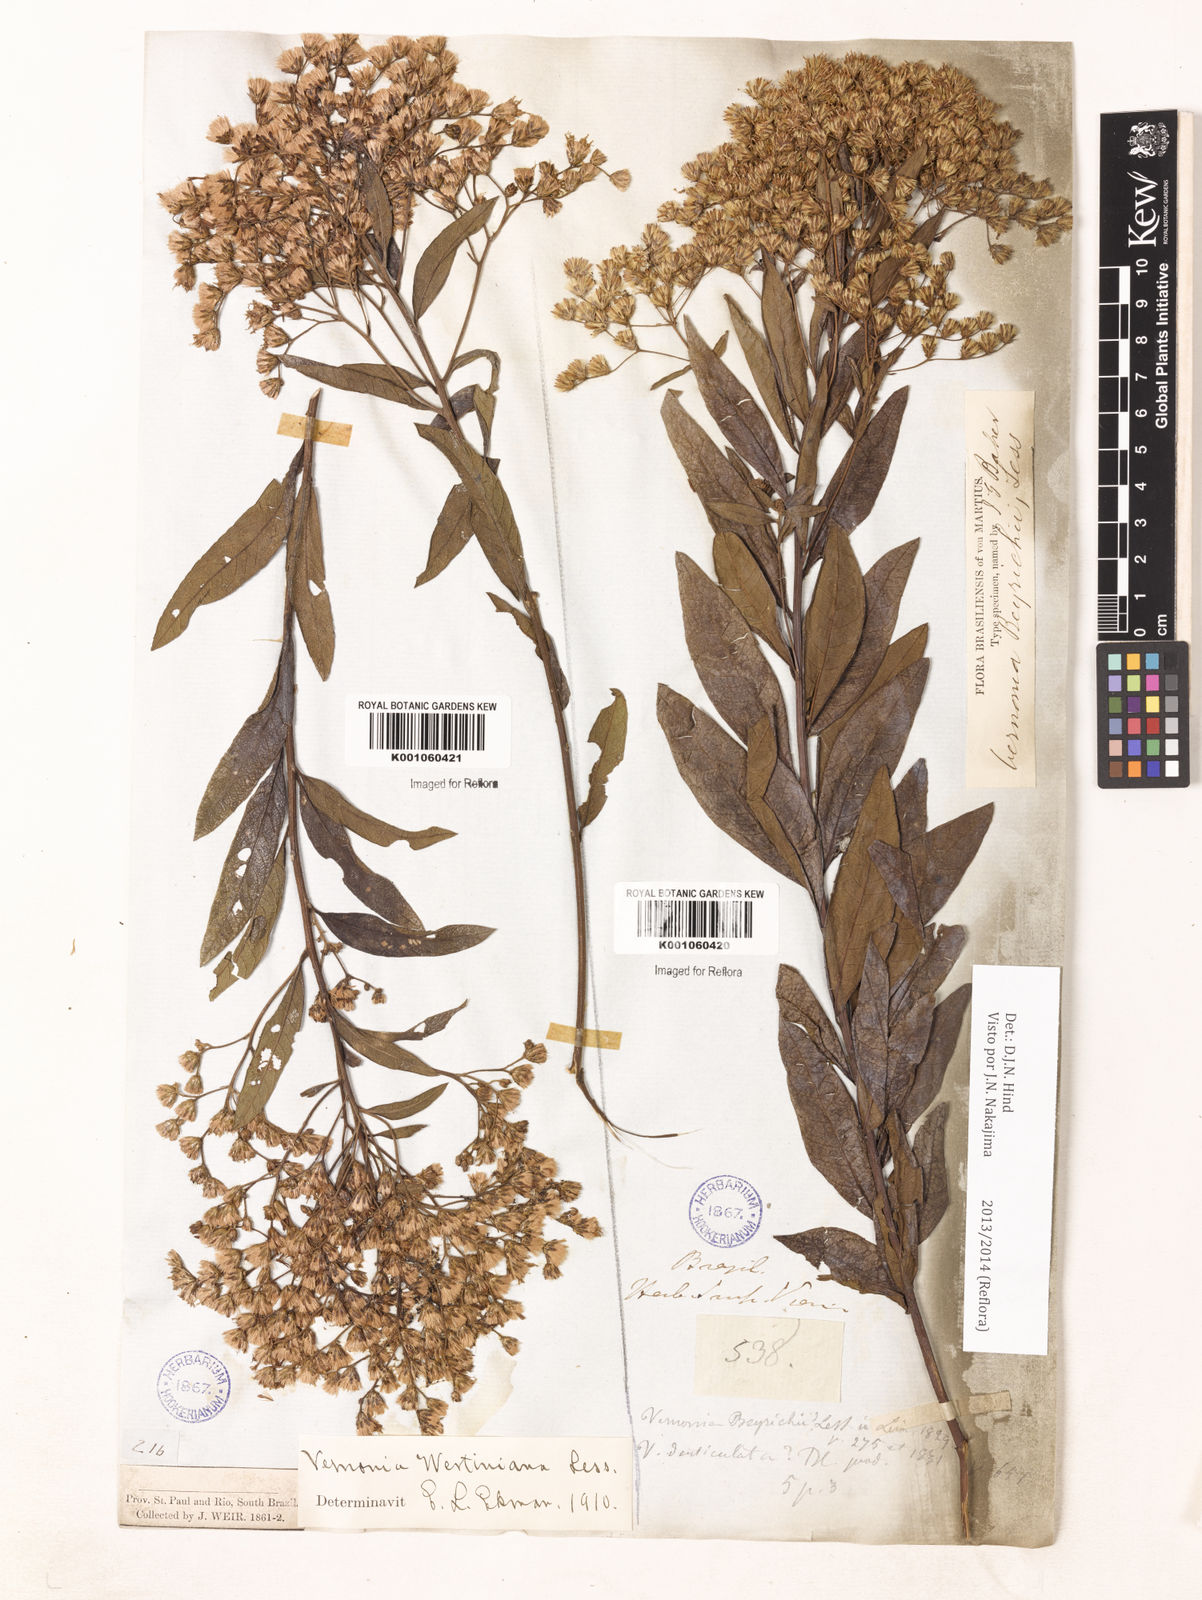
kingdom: Plantae
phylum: Tracheophyta
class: Magnoliopsida
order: Asterales
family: Asteraceae
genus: Vernonanthura
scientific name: Vernonanthura westiniana
